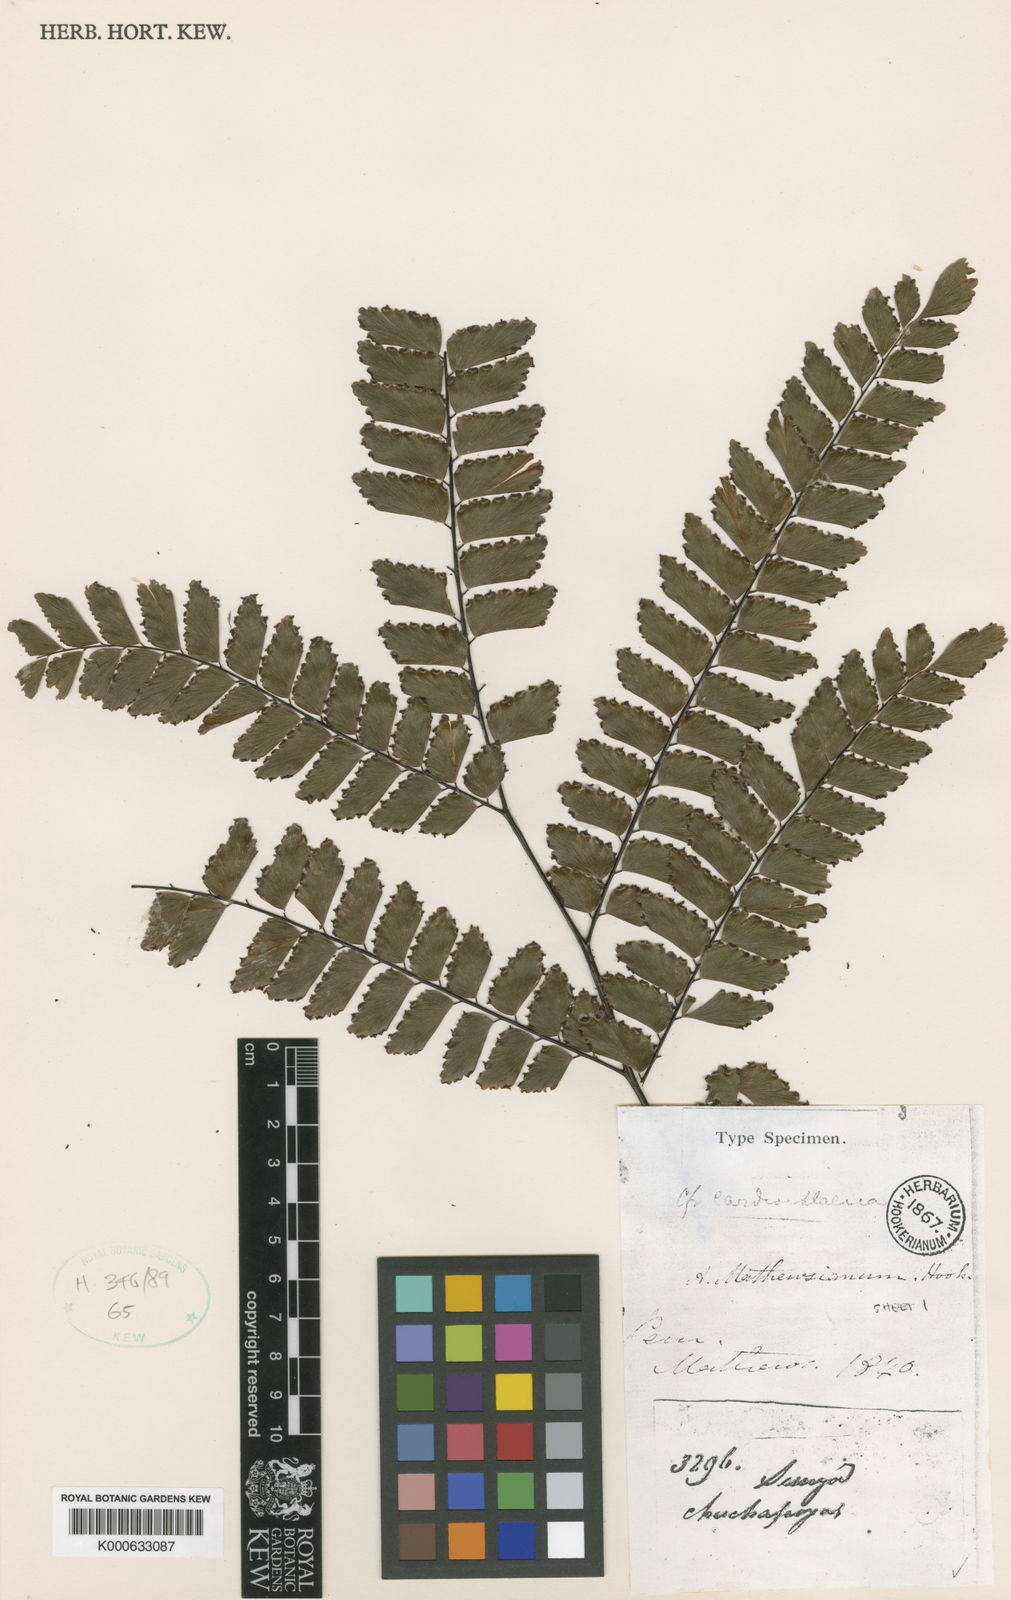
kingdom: Plantae
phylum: Tracheophyta
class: Polypodiopsida
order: Polypodiales
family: Pteridaceae
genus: Adiantum
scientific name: Adiantum macrocladum
